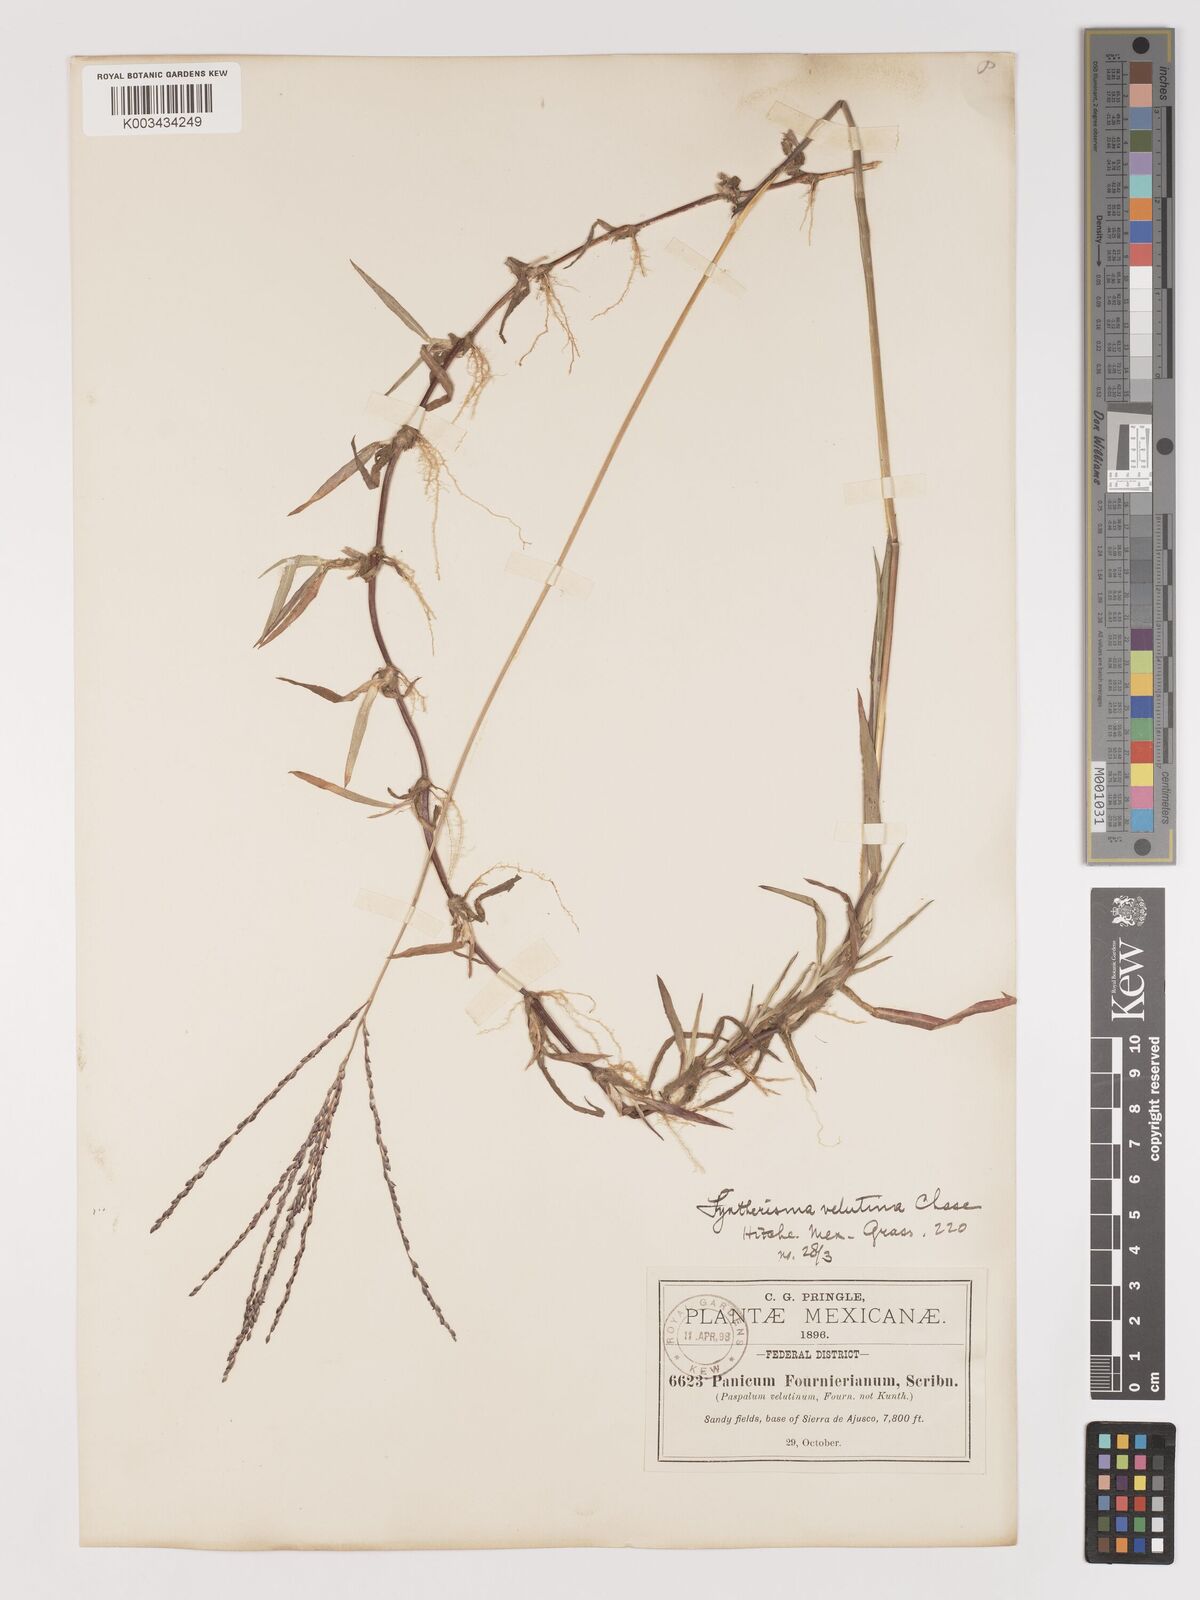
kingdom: Plantae
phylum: Tracheophyta
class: Liliopsida
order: Poales
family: Poaceae
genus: Digitaria
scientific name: Digitaria leucites
